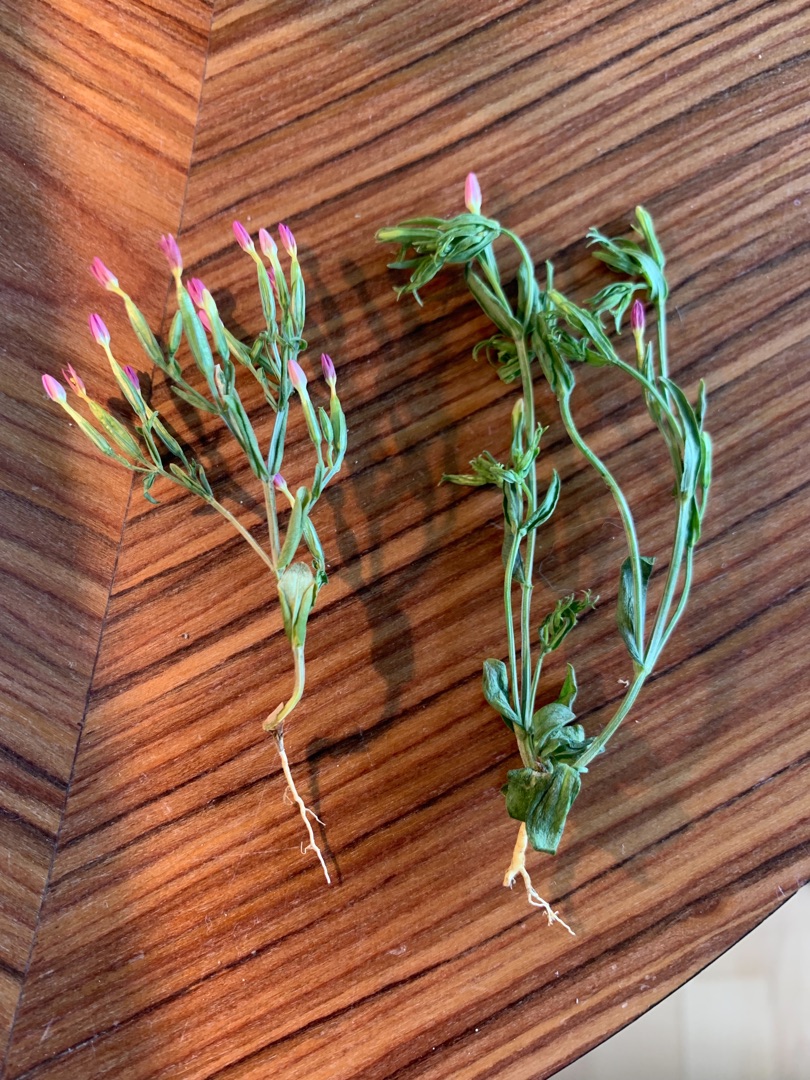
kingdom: Plantae
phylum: Tracheophyta
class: Magnoliopsida
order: Gentianales
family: Gentianaceae
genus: Centaurium
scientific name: Centaurium erythraea
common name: Mark-tusindgylden
